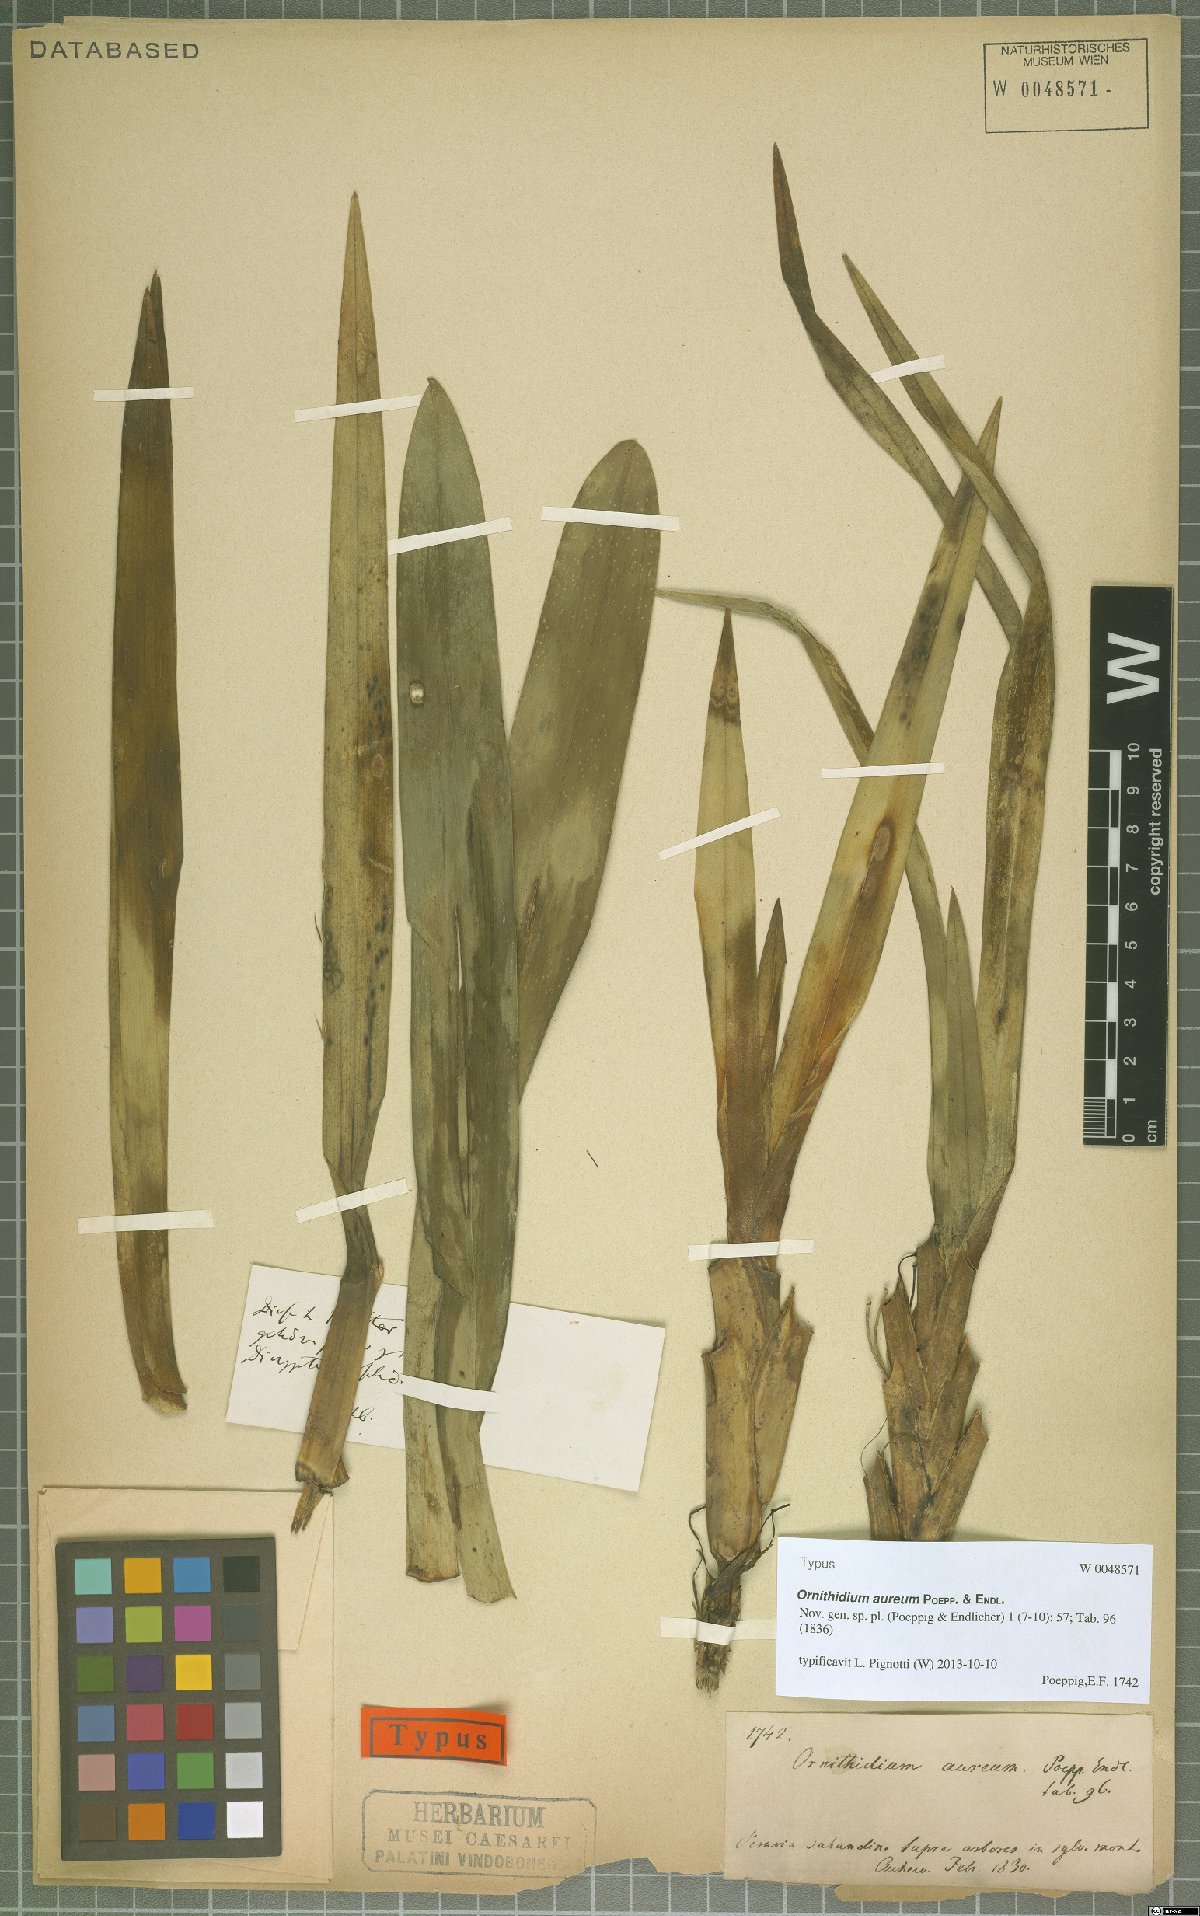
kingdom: Plantae
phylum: Tracheophyta
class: Liliopsida
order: Asparagales
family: Orchidaceae
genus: Maxillaria
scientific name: Maxillaria aurea
